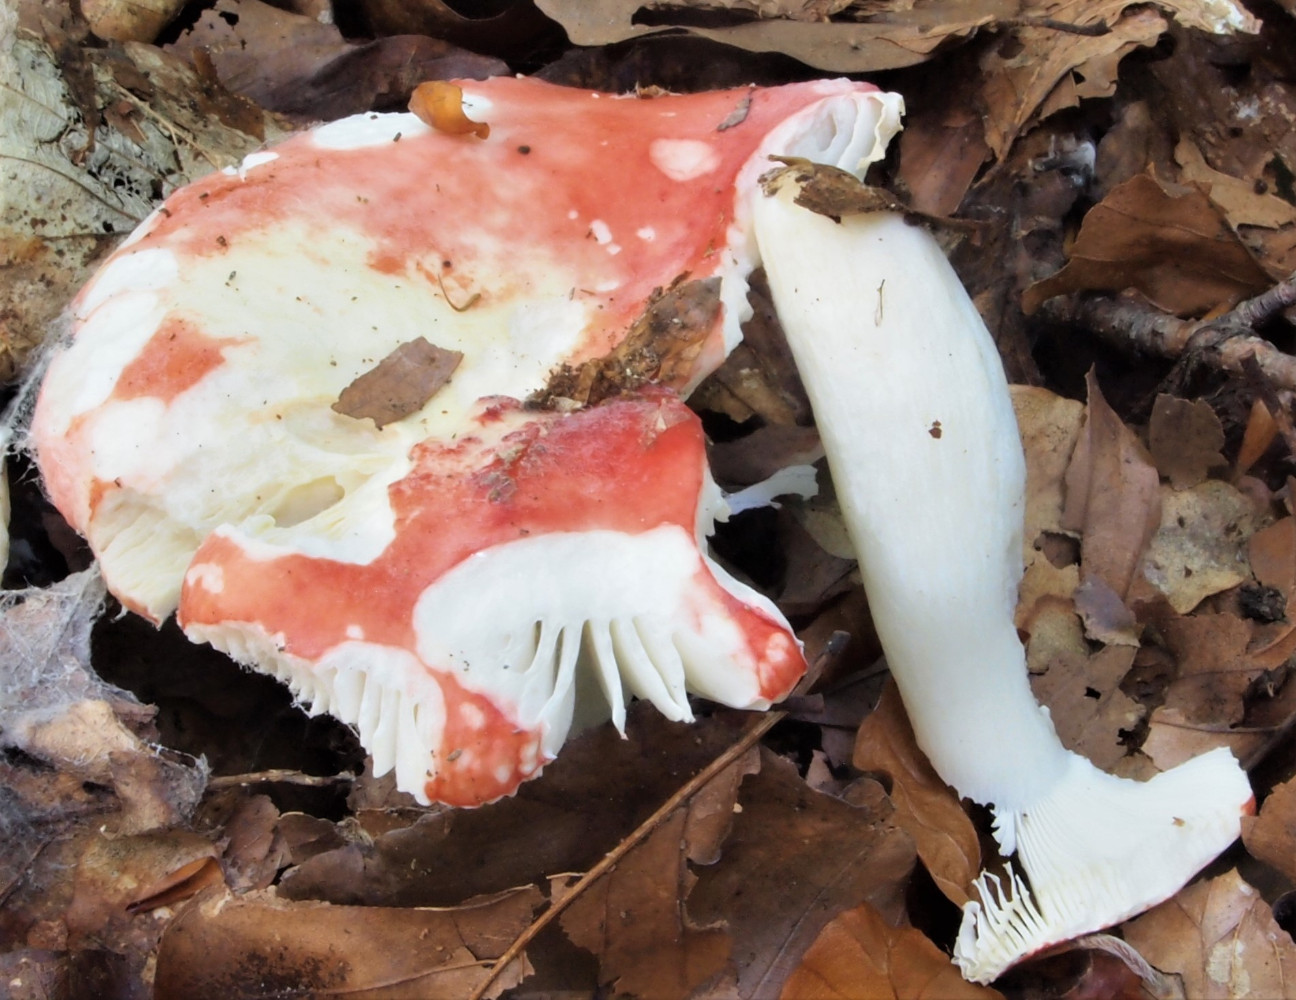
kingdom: Fungi
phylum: Basidiomycota
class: Agaricomycetes
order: Russulales
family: Russulaceae
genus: Russula
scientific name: Russula silvestris
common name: mellemstor gift-skørhat
